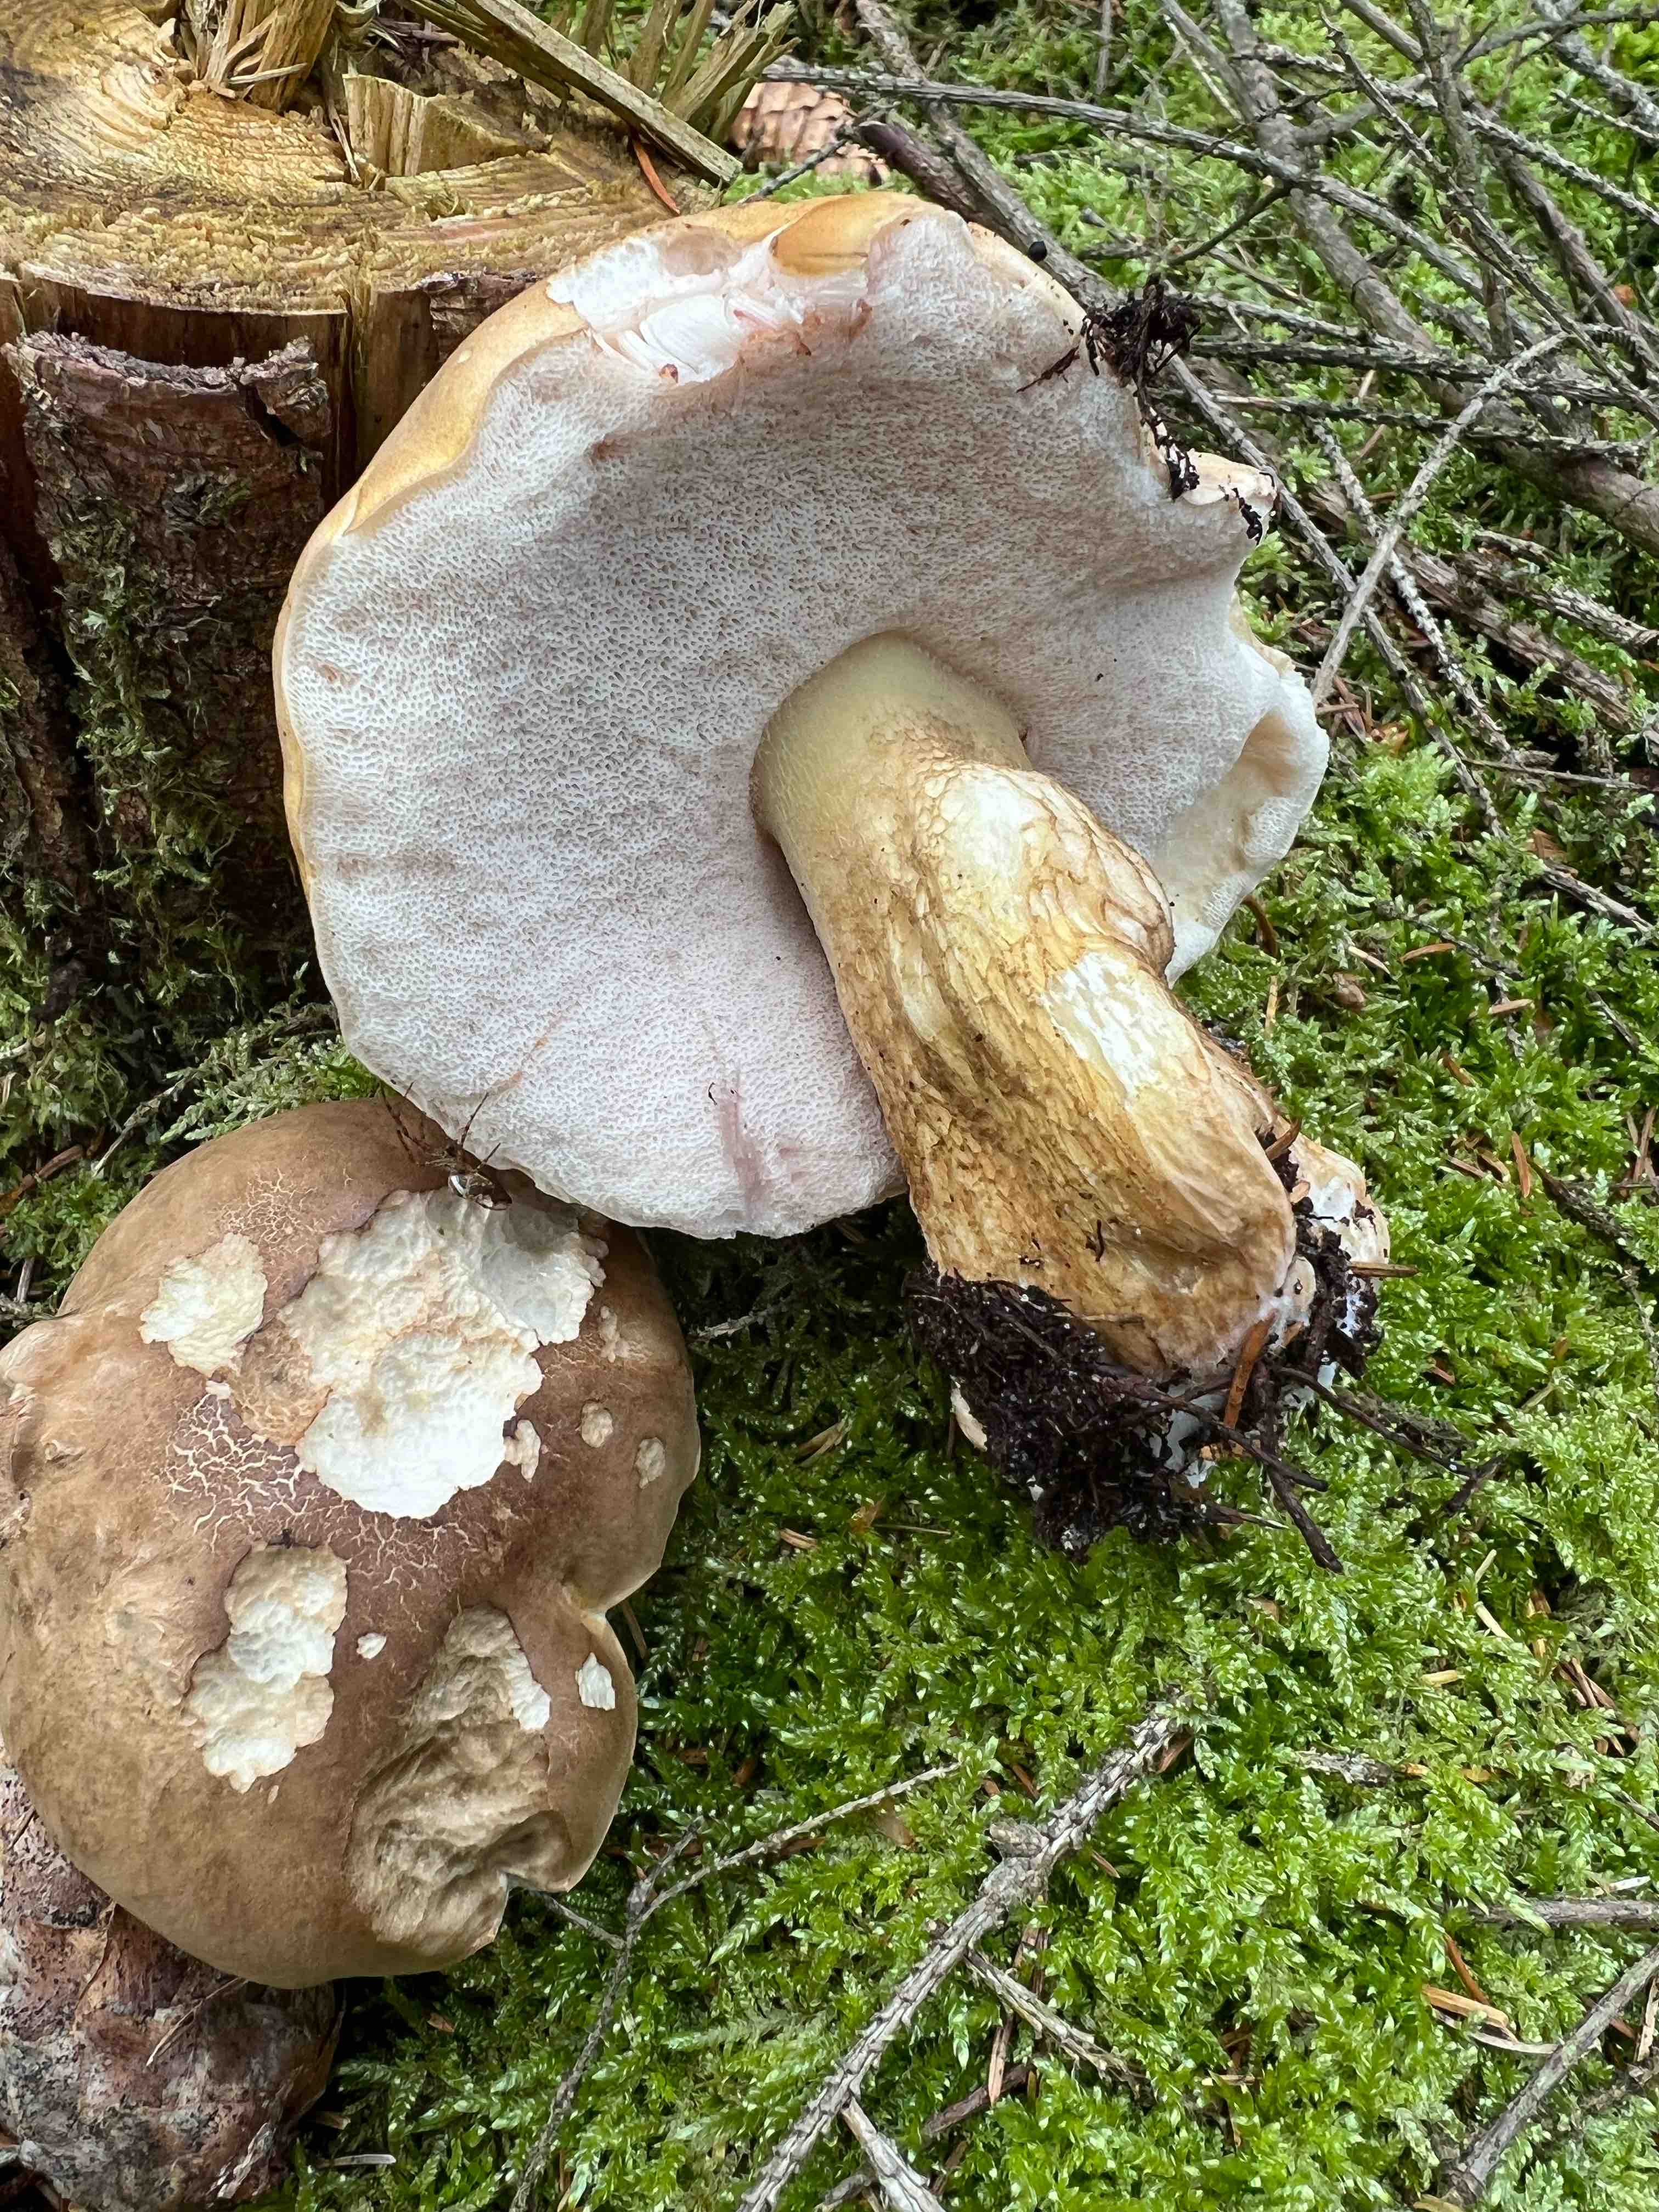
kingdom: Fungi
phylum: Basidiomycota
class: Agaricomycetes
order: Boletales
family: Boletaceae
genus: Tylopilus
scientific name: Tylopilus felleus
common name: galderørhat
